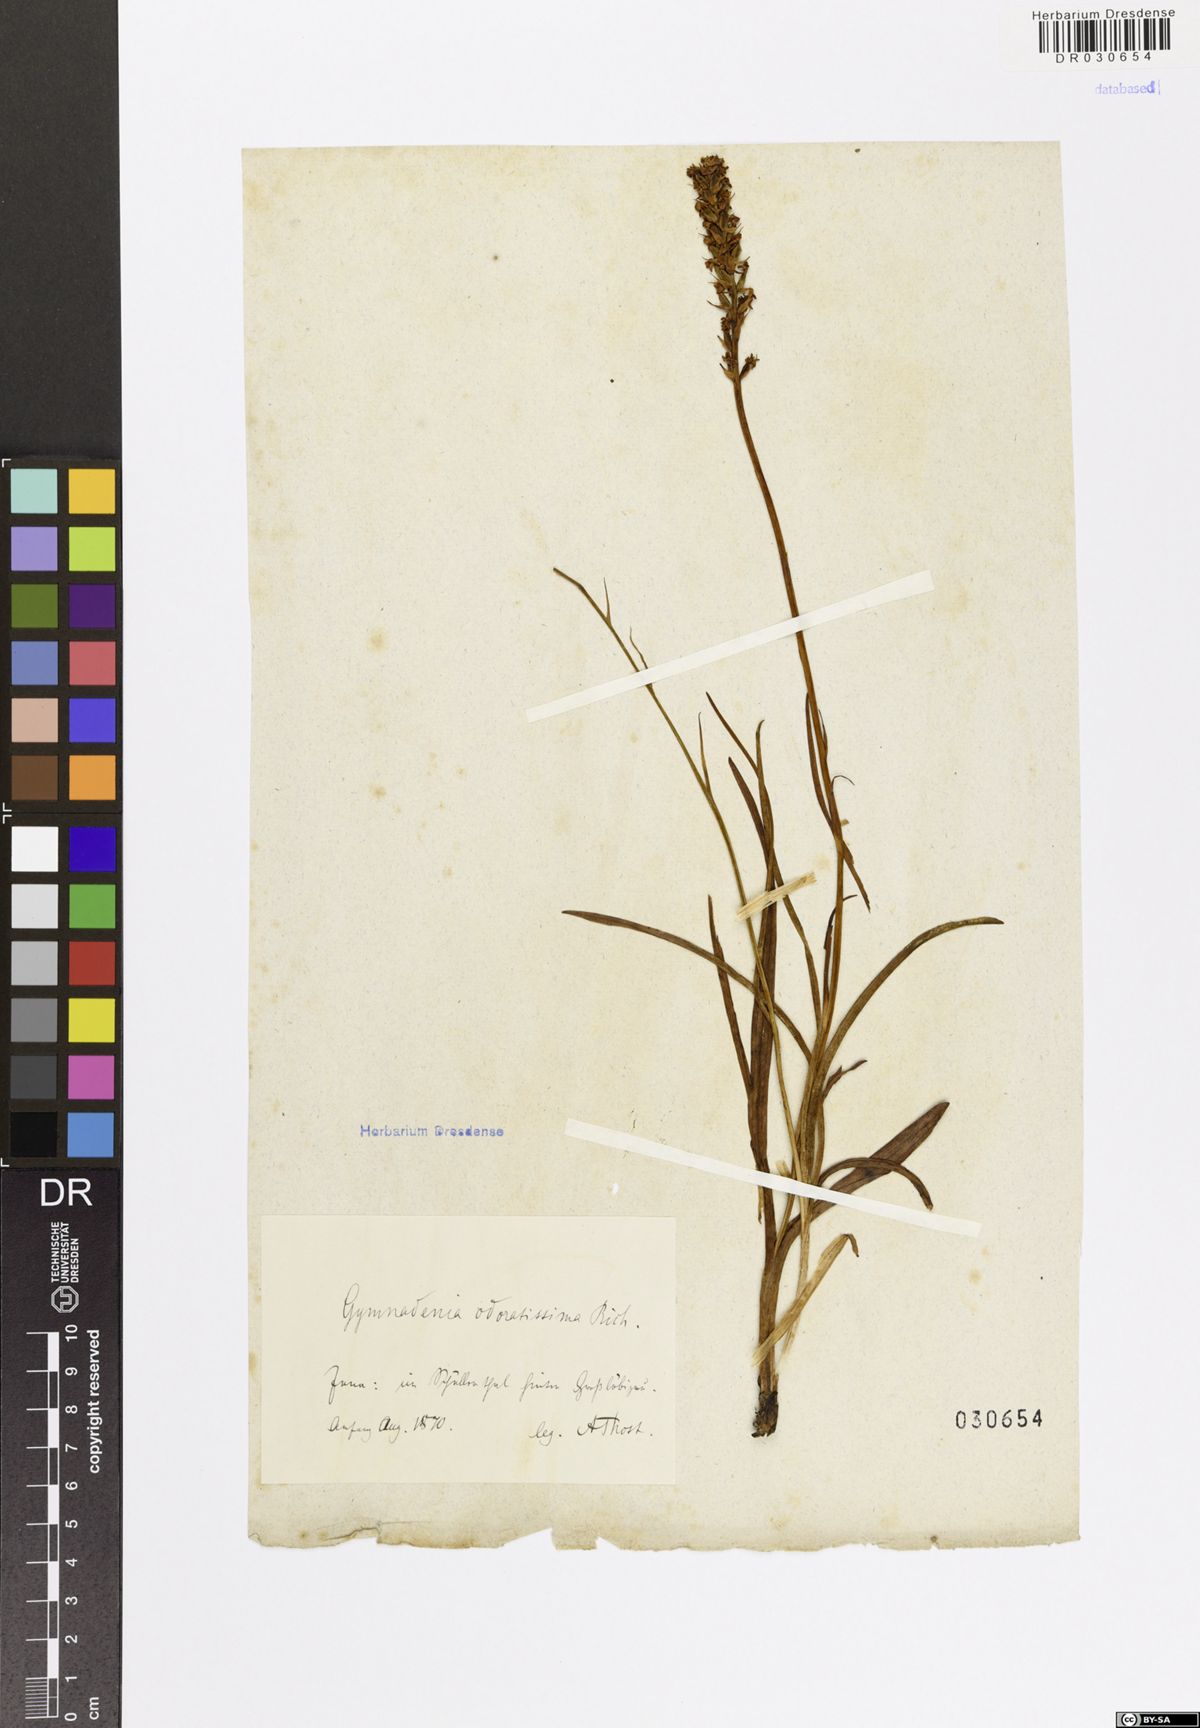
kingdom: Plantae
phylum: Tracheophyta
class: Liliopsida
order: Asparagales
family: Orchidaceae
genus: Gymnadenia
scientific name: Gymnadenia odoratissima
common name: Scented gymnadenia
